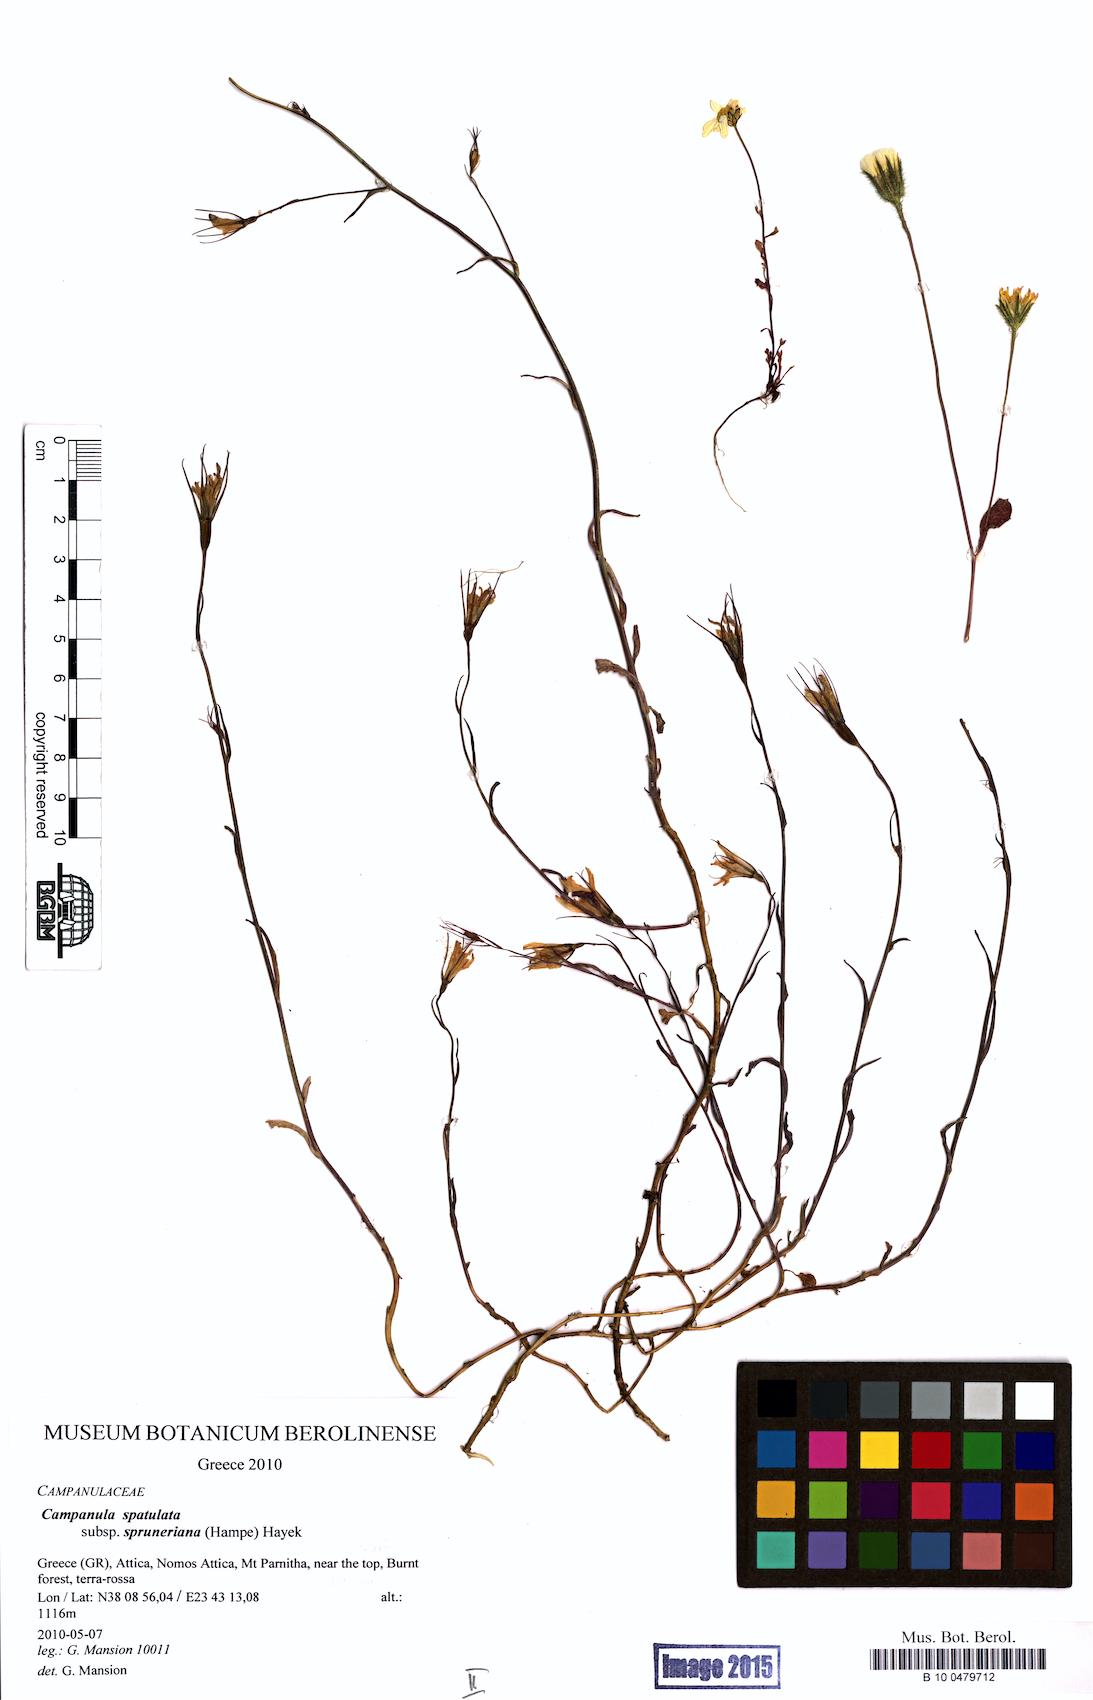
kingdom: Plantae
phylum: Tracheophyta
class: Magnoliopsida
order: Asterales
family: Campanulaceae
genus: Campanula
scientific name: Campanula spatulata
